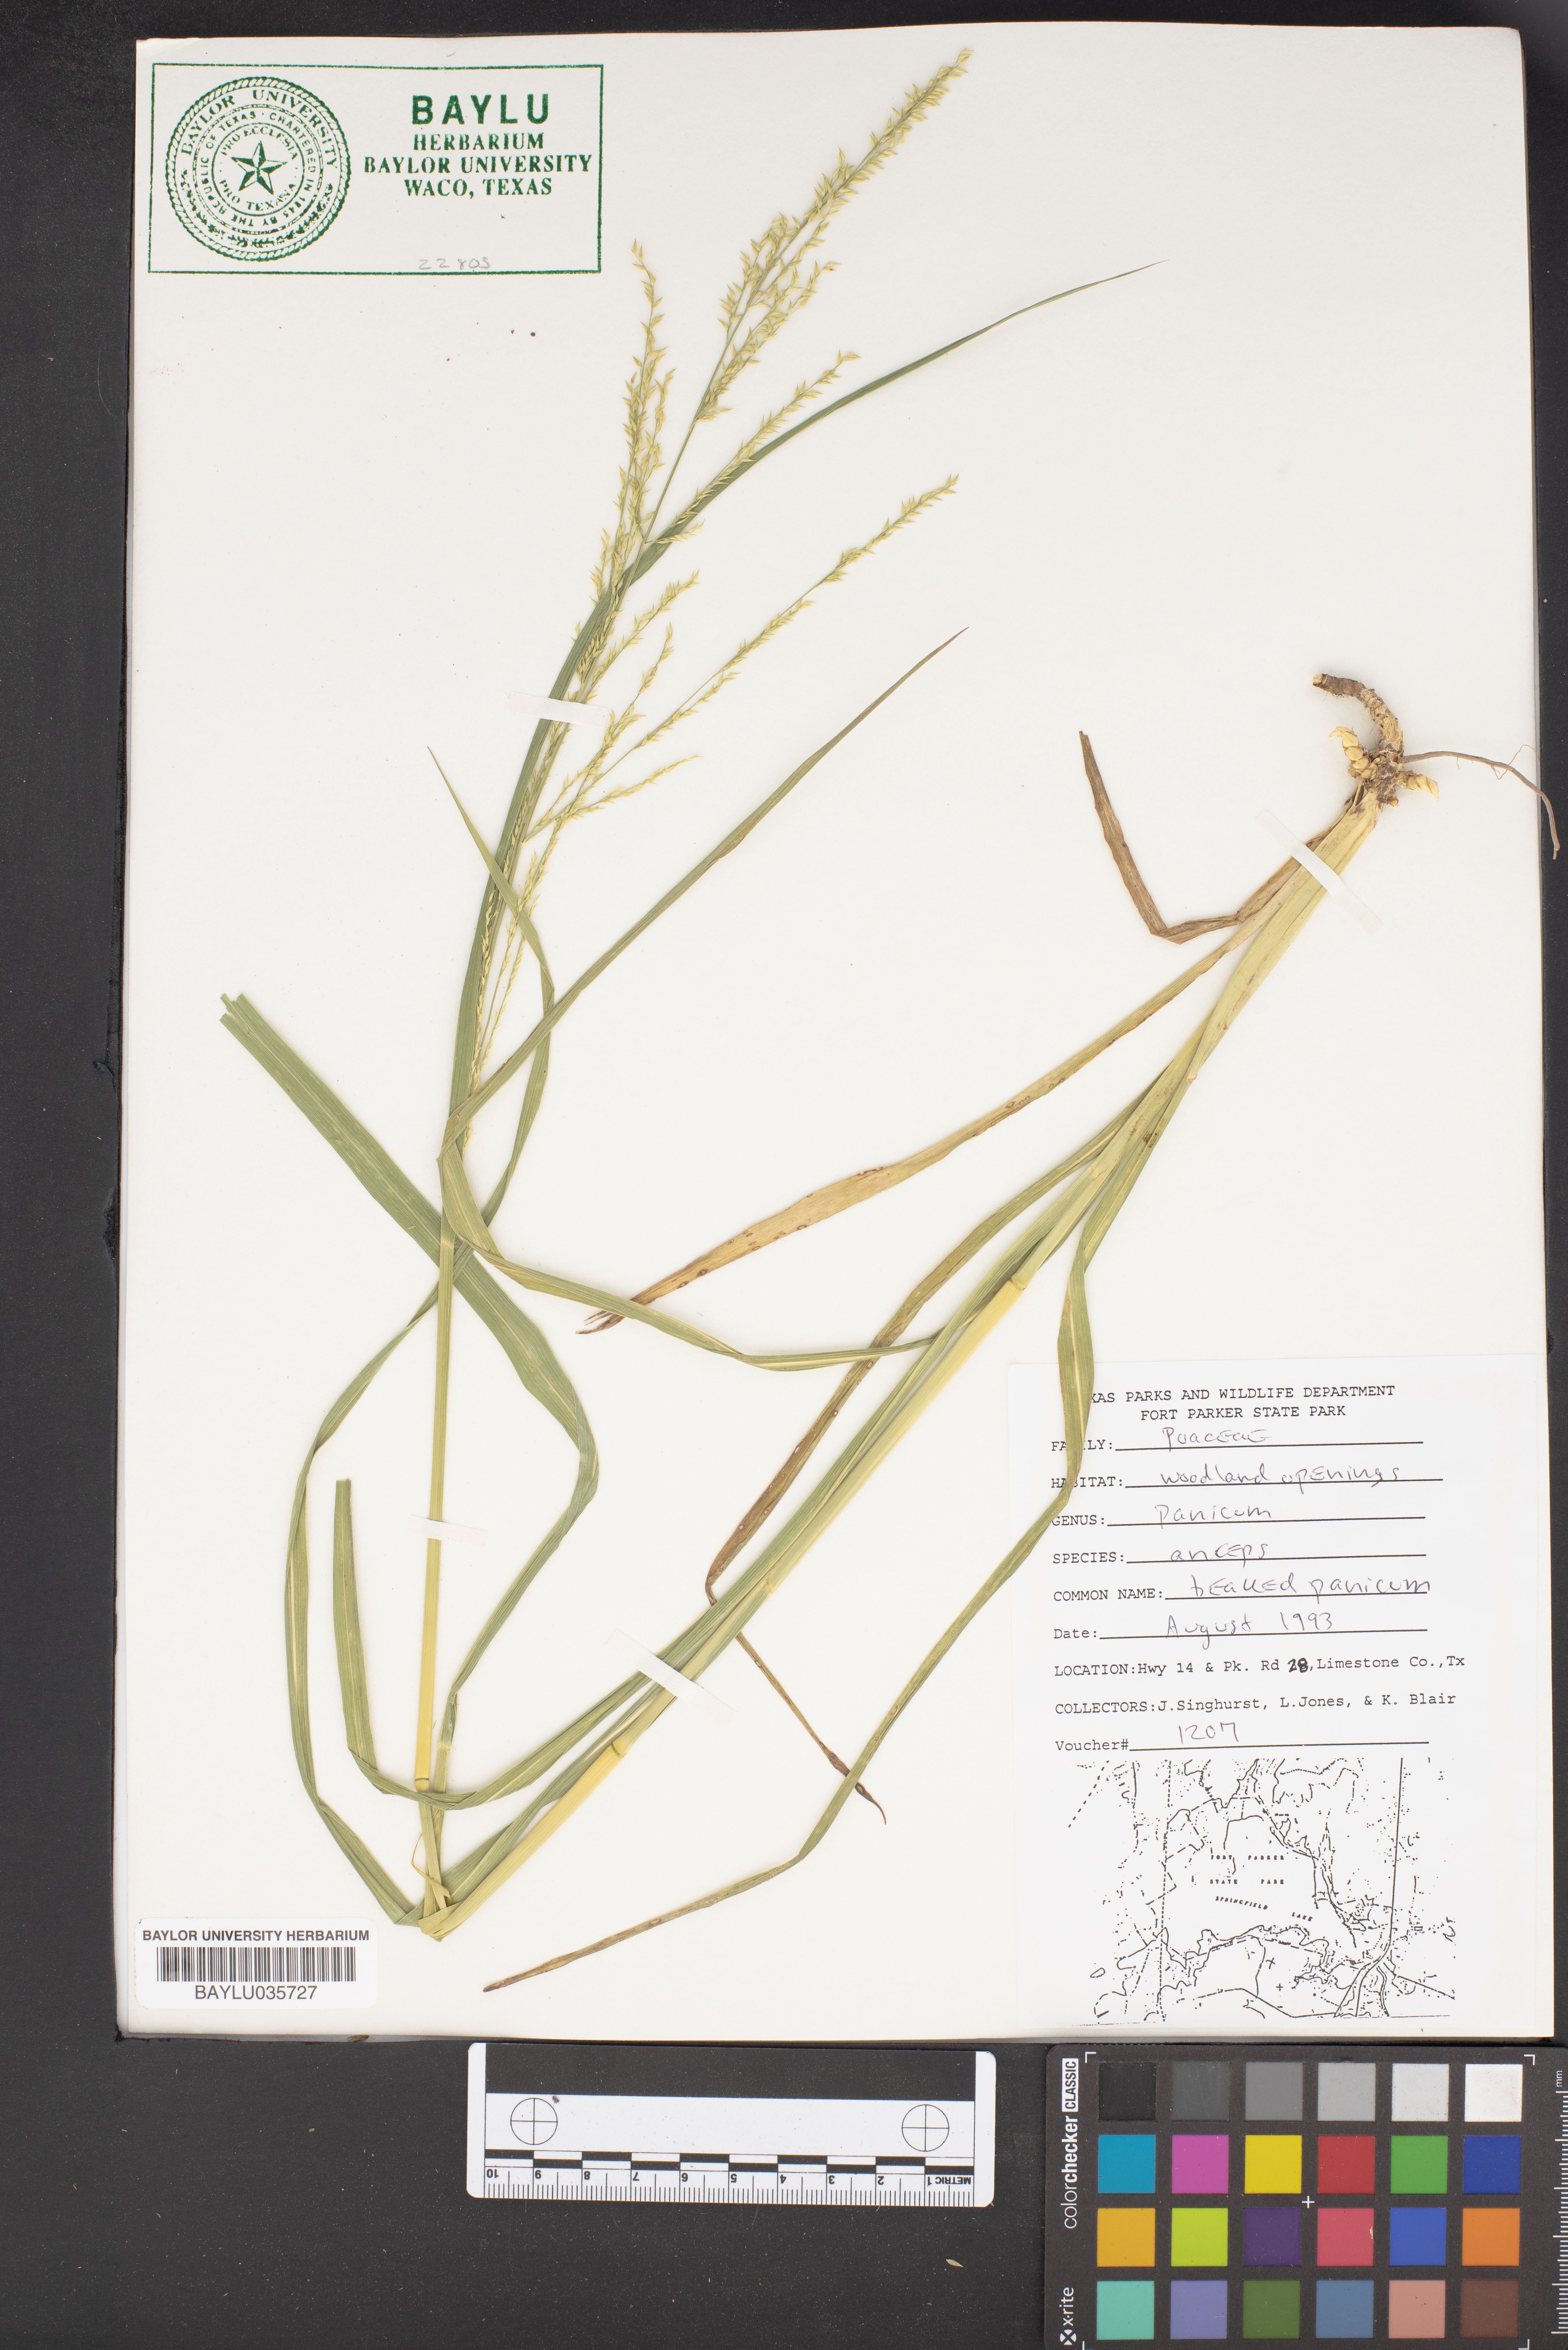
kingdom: Plantae
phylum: Tracheophyta
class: Liliopsida
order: Poales
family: Poaceae
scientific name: Poaceae
